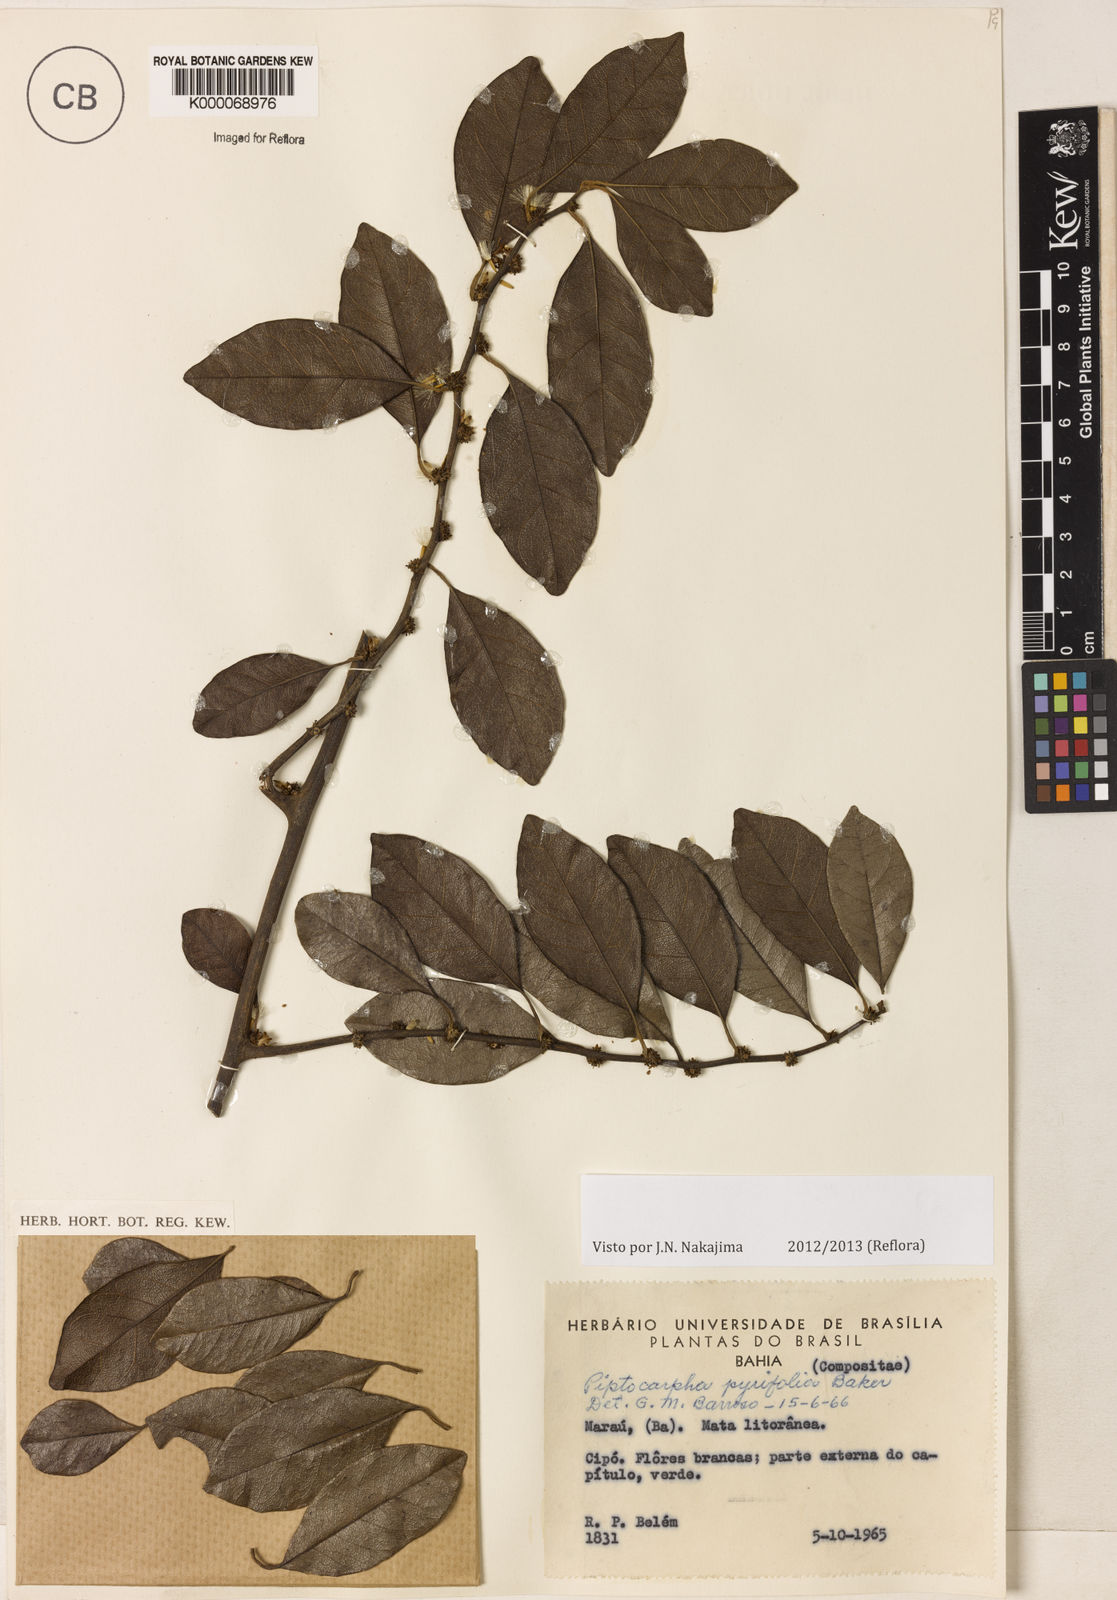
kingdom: Plantae
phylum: Tracheophyta
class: Magnoliopsida
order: Asterales
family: Asteraceae
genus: Piptocarpha
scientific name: Piptocarpha pyrifolia
